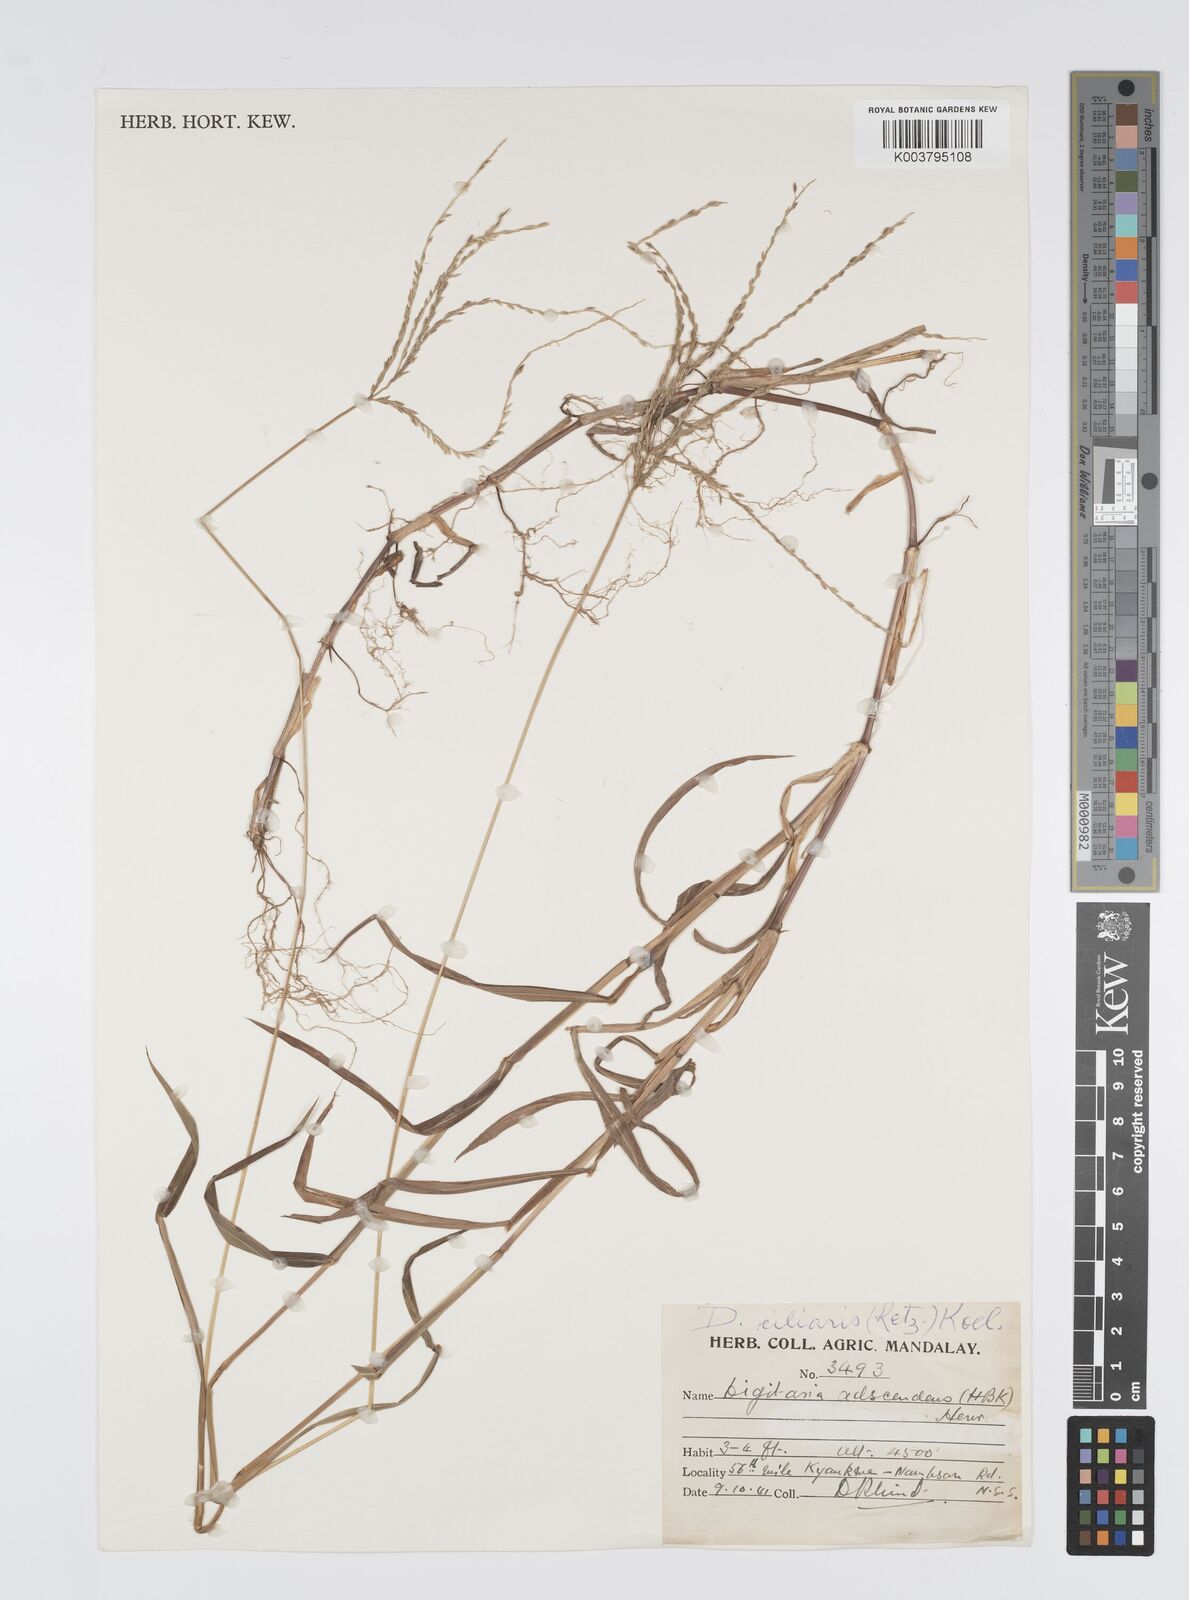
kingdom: Plantae
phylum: Tracheophyta
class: Liliopsida
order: Poales
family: Poaceae
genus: Digitaria
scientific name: Digitaria setigera
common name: East indian crabgrass
